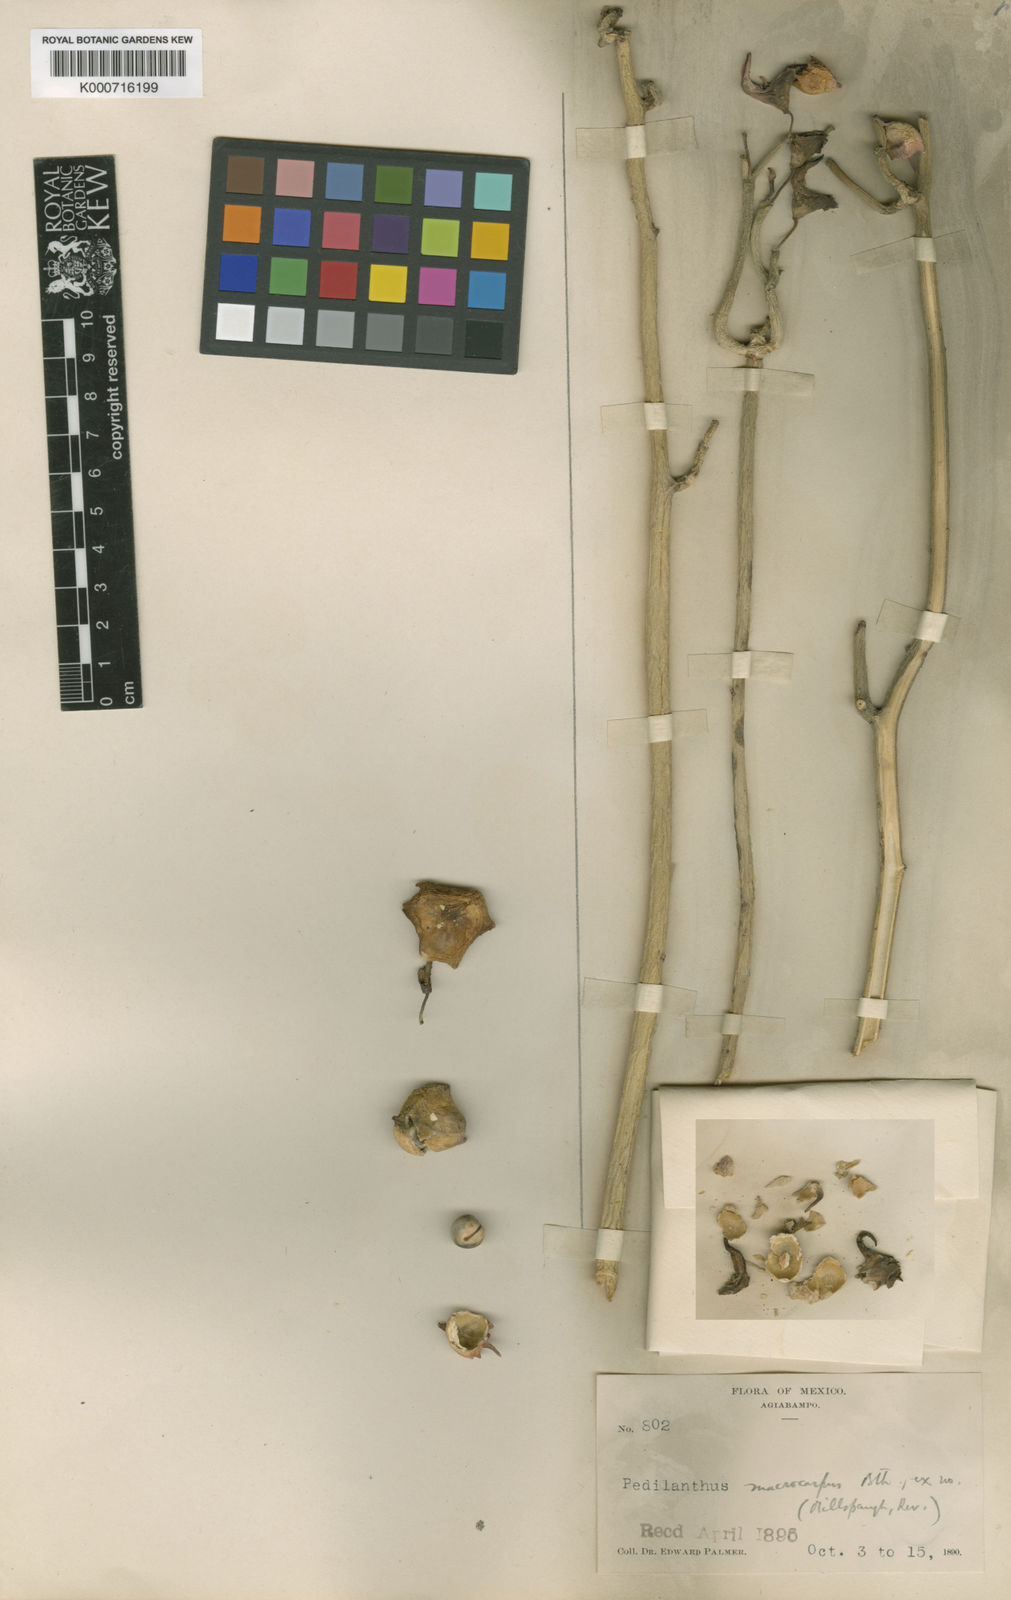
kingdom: Plantae
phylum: Tracheophyta
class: Magnoliopsida
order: Malpighiales
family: Euphorbiaceae
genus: Euphorbia
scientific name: Euphorbia lomelii
